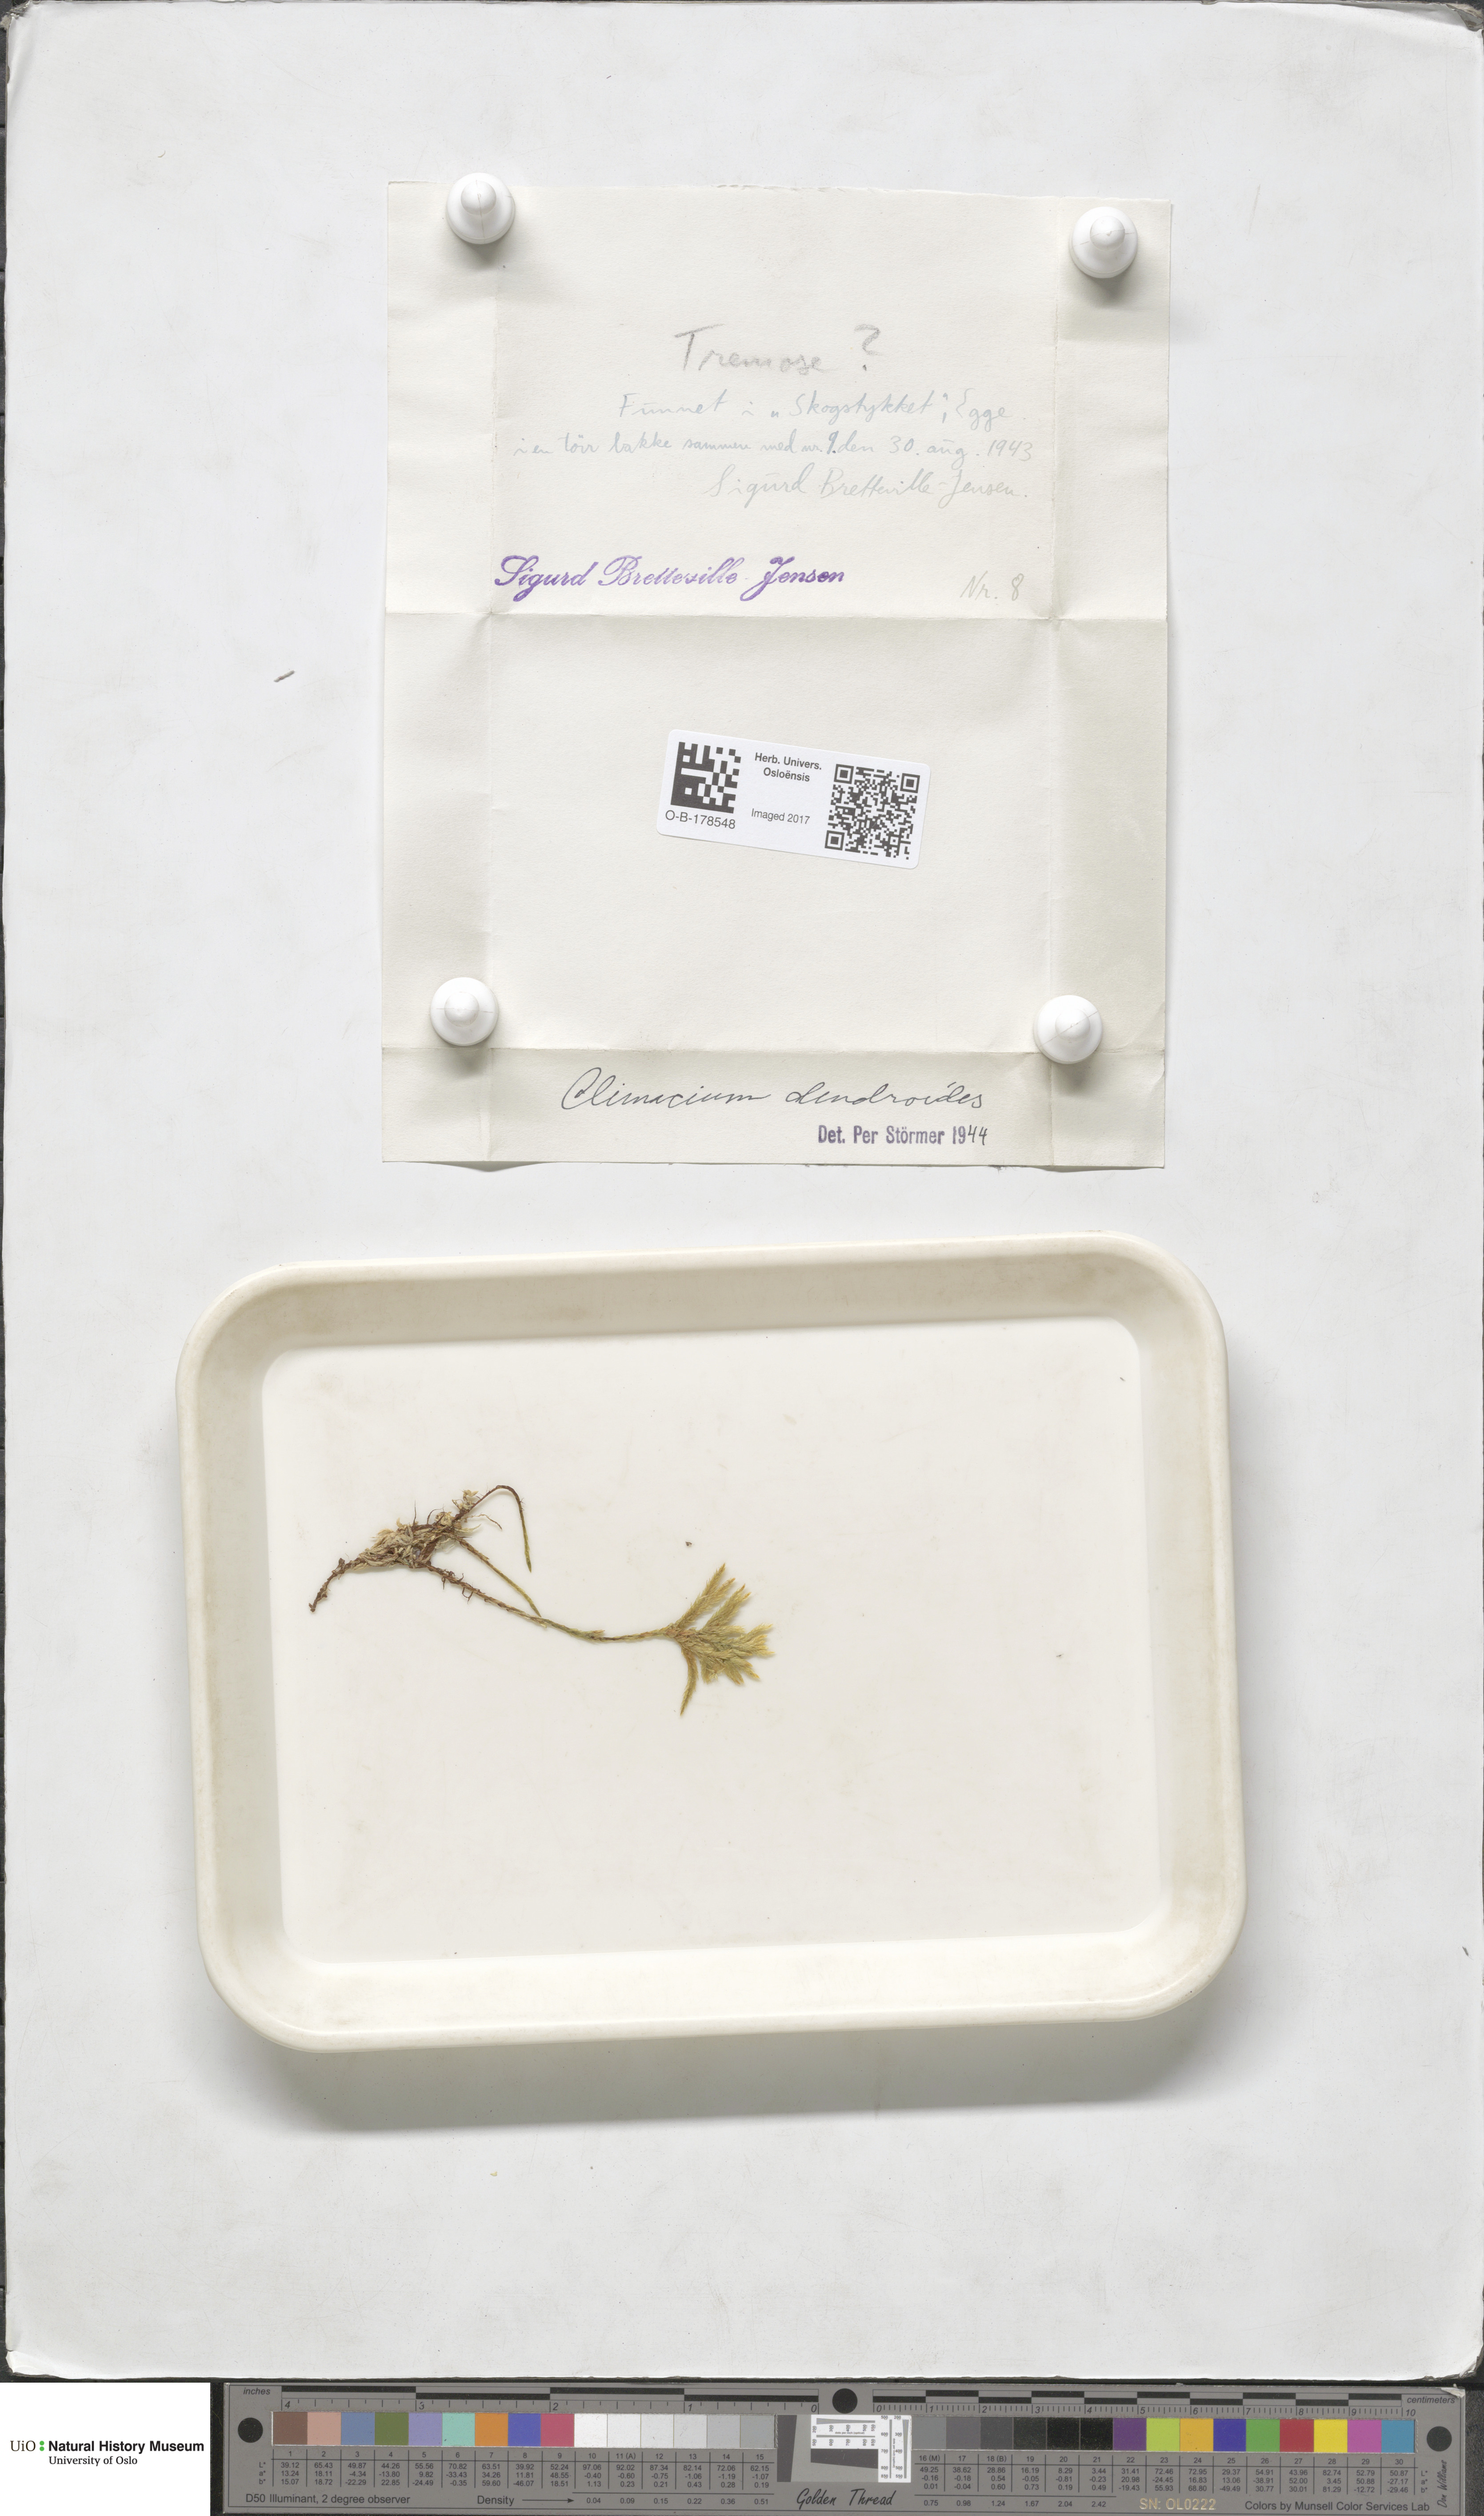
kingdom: Plantae
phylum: Bryophyta
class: Bryopsida
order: Hypnales
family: Climaciaceae
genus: Climacium
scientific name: Climacium dendroides
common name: Northern tree moss
